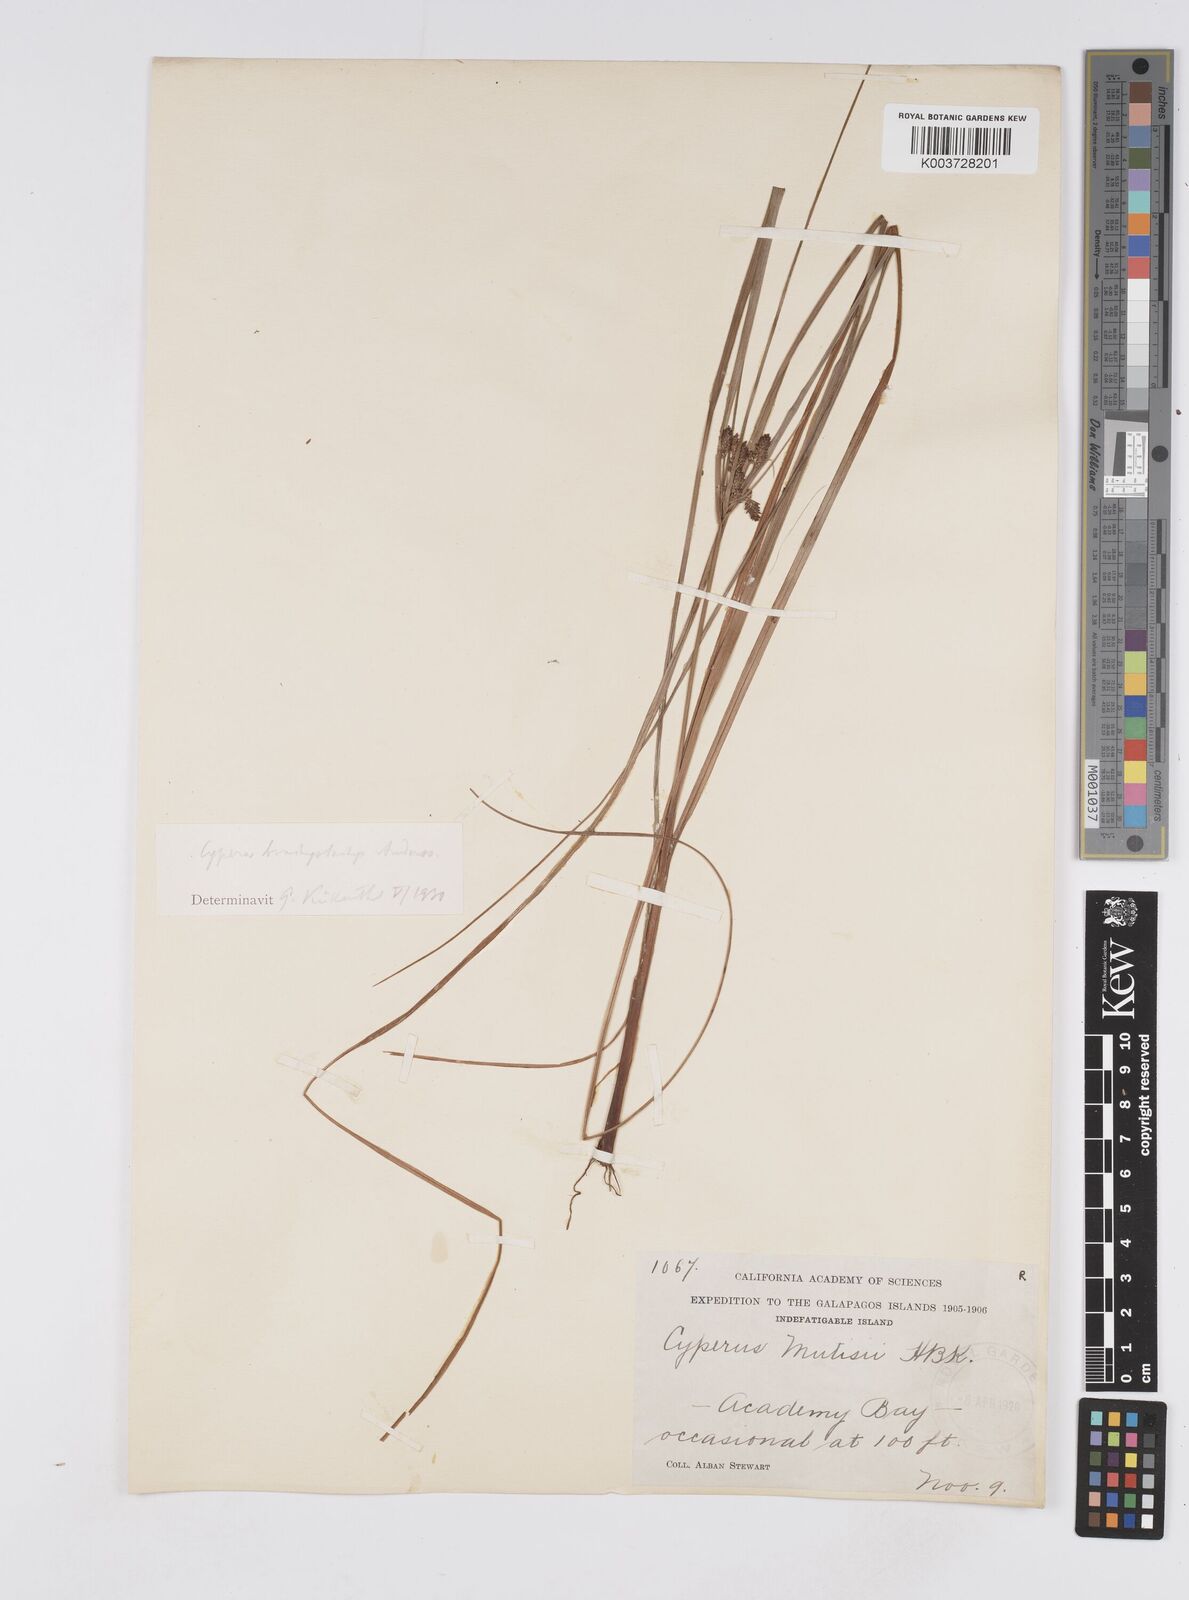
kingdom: Plantae
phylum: Tracheophyta
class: Liliopsida
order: Poales
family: Cyperaceae
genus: Cyperus
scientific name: Cyperus anderssonii
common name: Andersson's sedge
